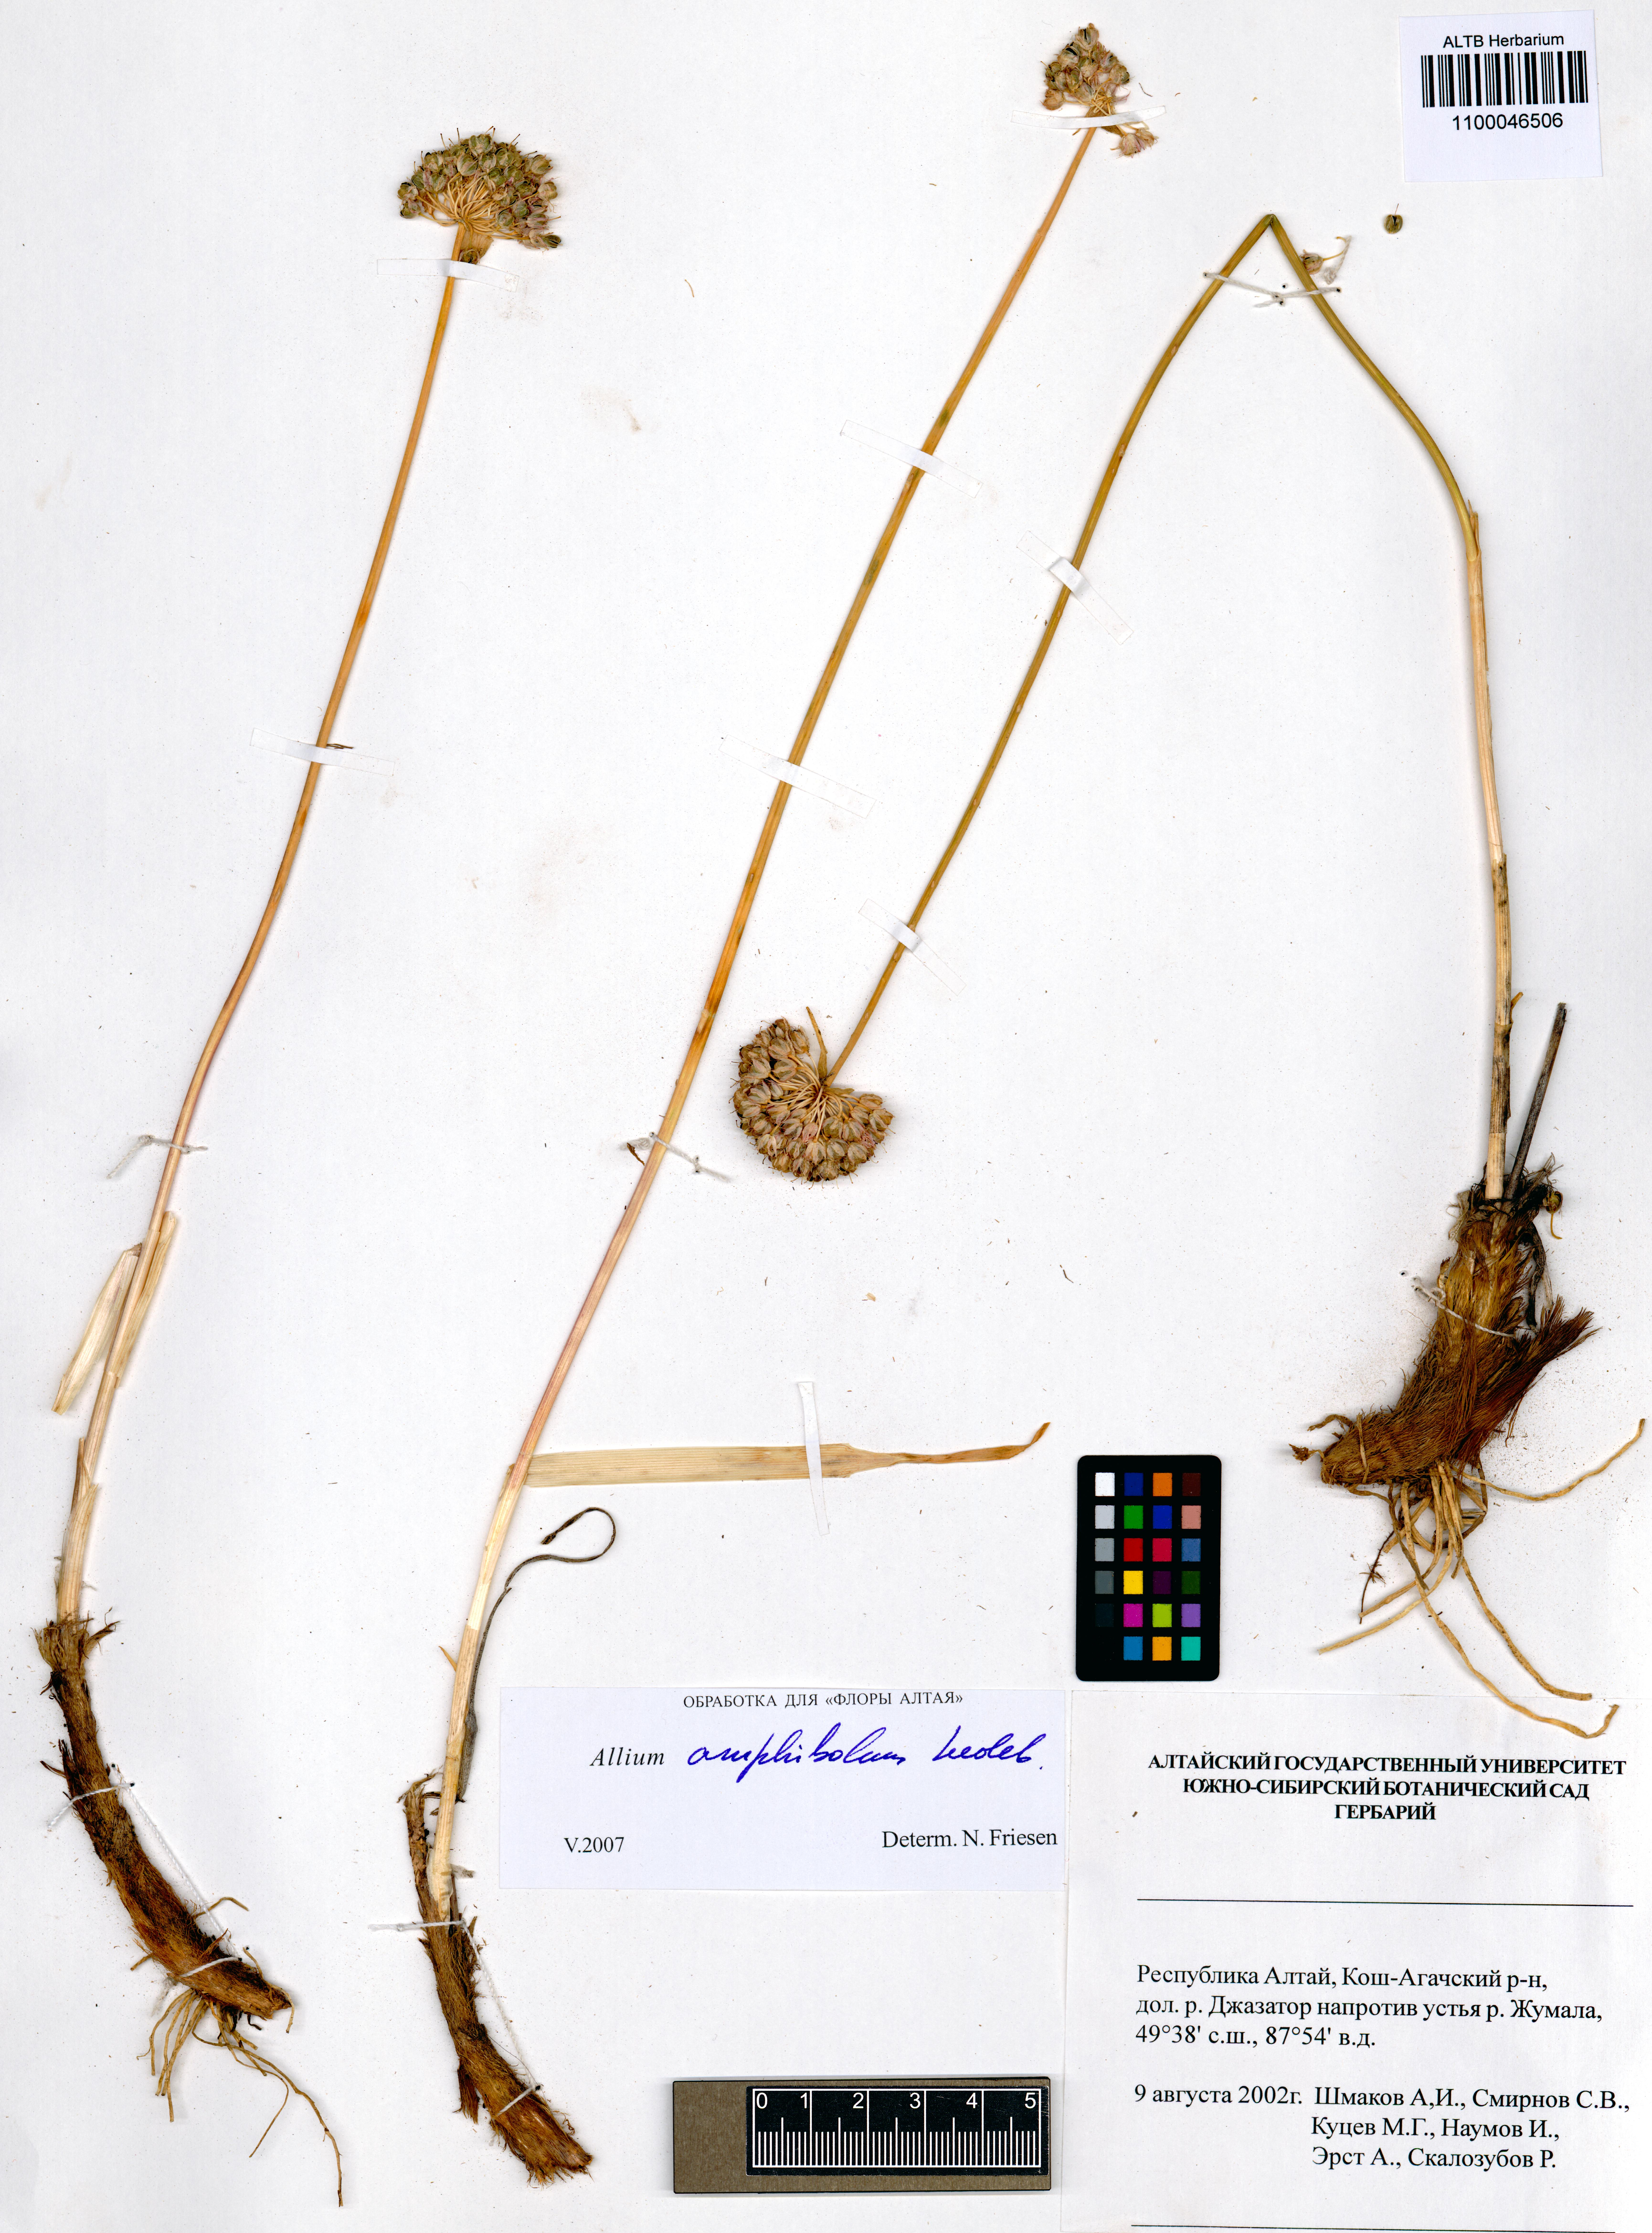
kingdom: Plantae
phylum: Tracheophyta
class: Liliopsida
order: Asparagales
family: Amaryllidaceae
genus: Allium
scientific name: Allium amphibolum
